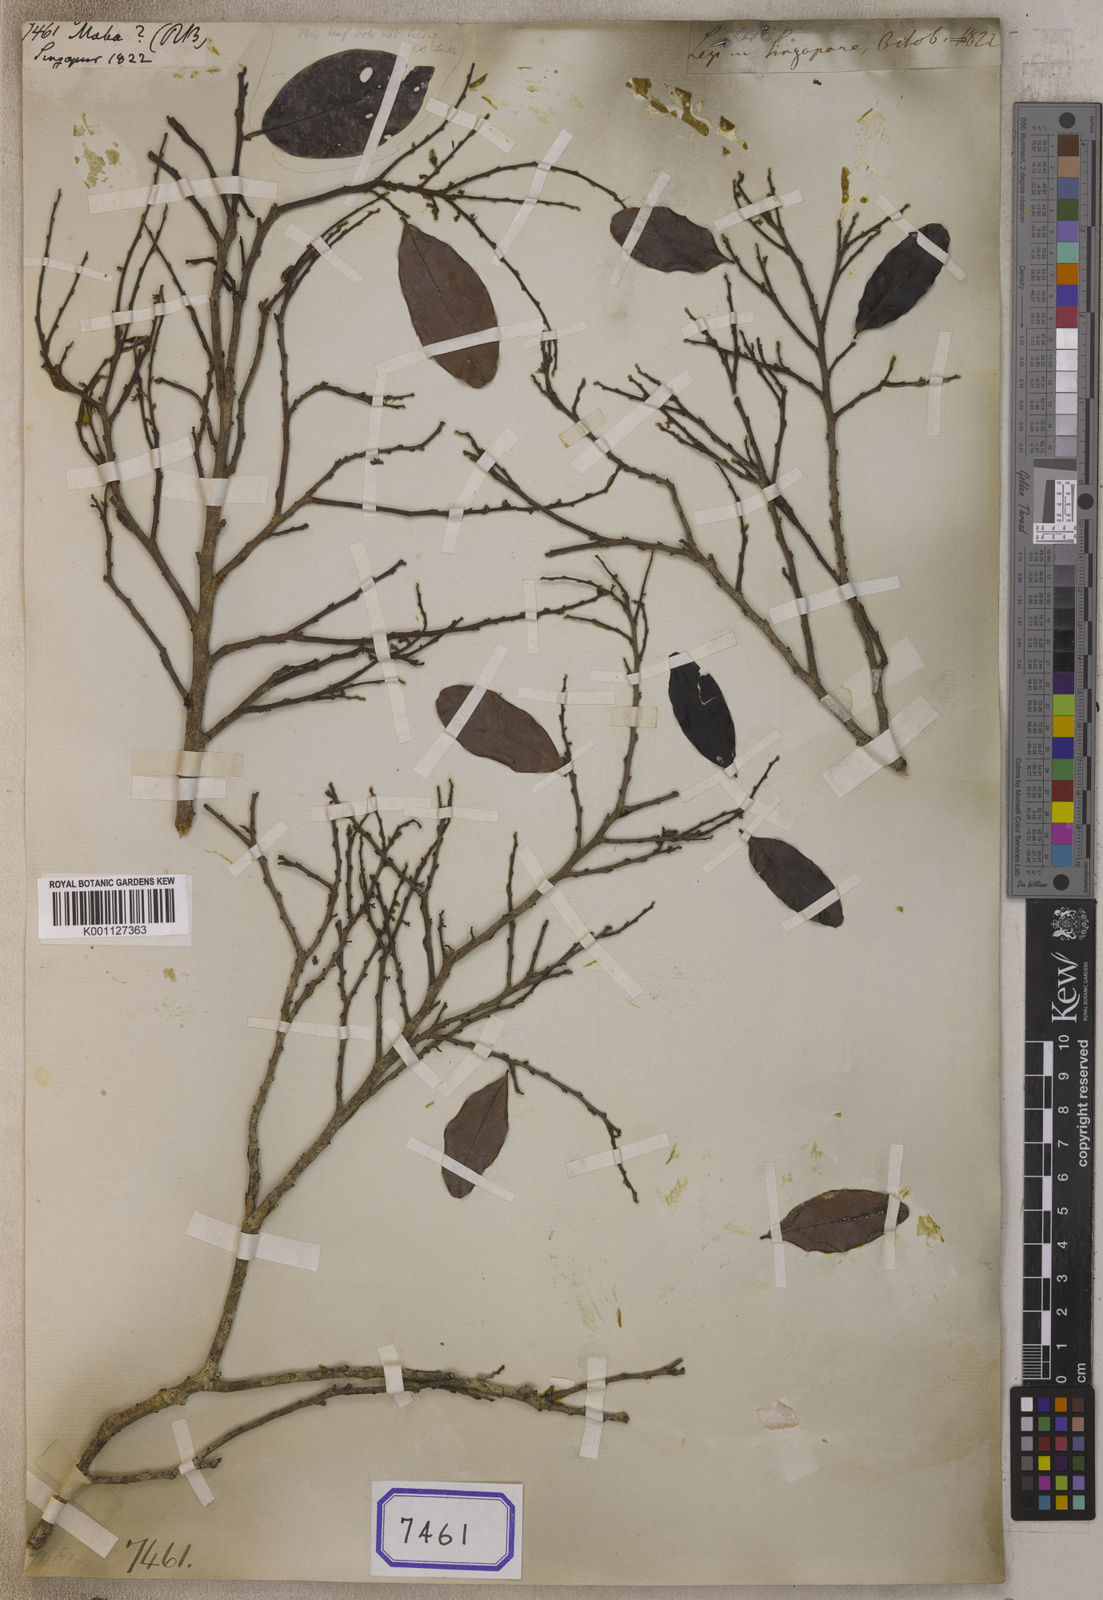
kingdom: Plantae
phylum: Tracheophyta
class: Magnoliopsida
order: Ericales
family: Ebenaceae
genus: Diospyros
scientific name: Diospyros
